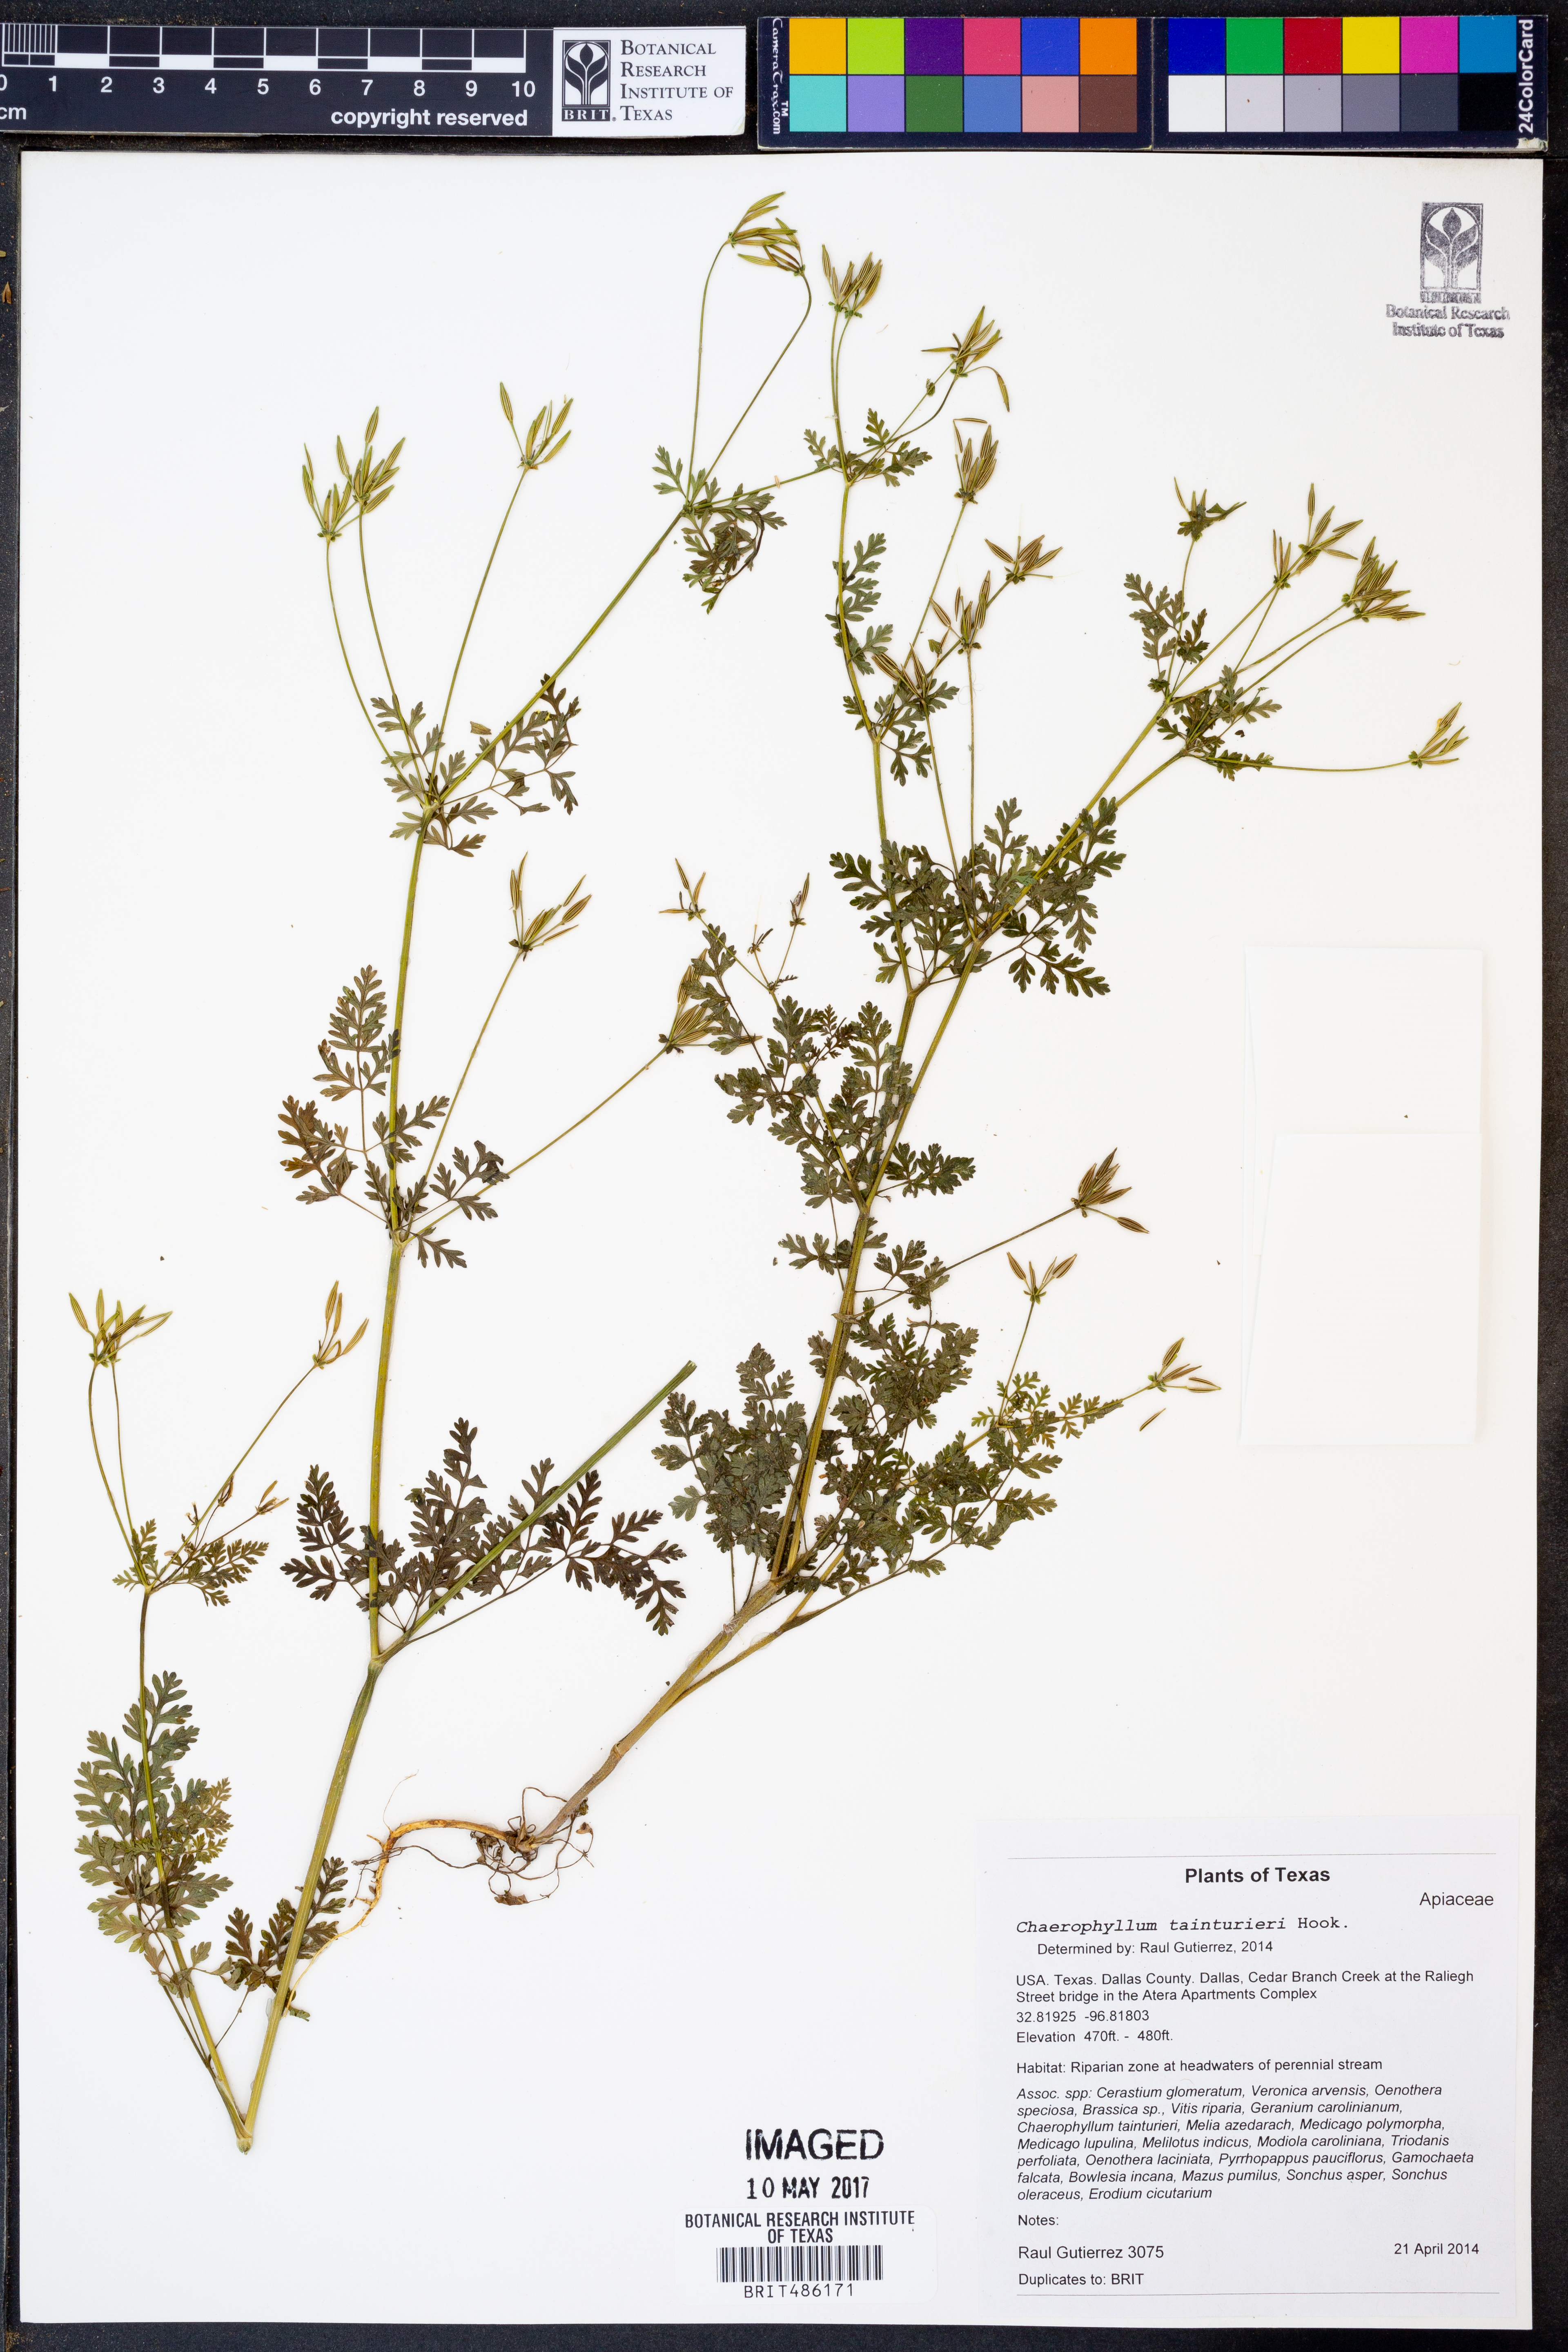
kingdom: Plantae
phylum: Tracheophyta
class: Magnoliopsida
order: Apiales
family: Apiaceae
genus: Chaerophyllum
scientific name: Chaerophyllum tainturieri
